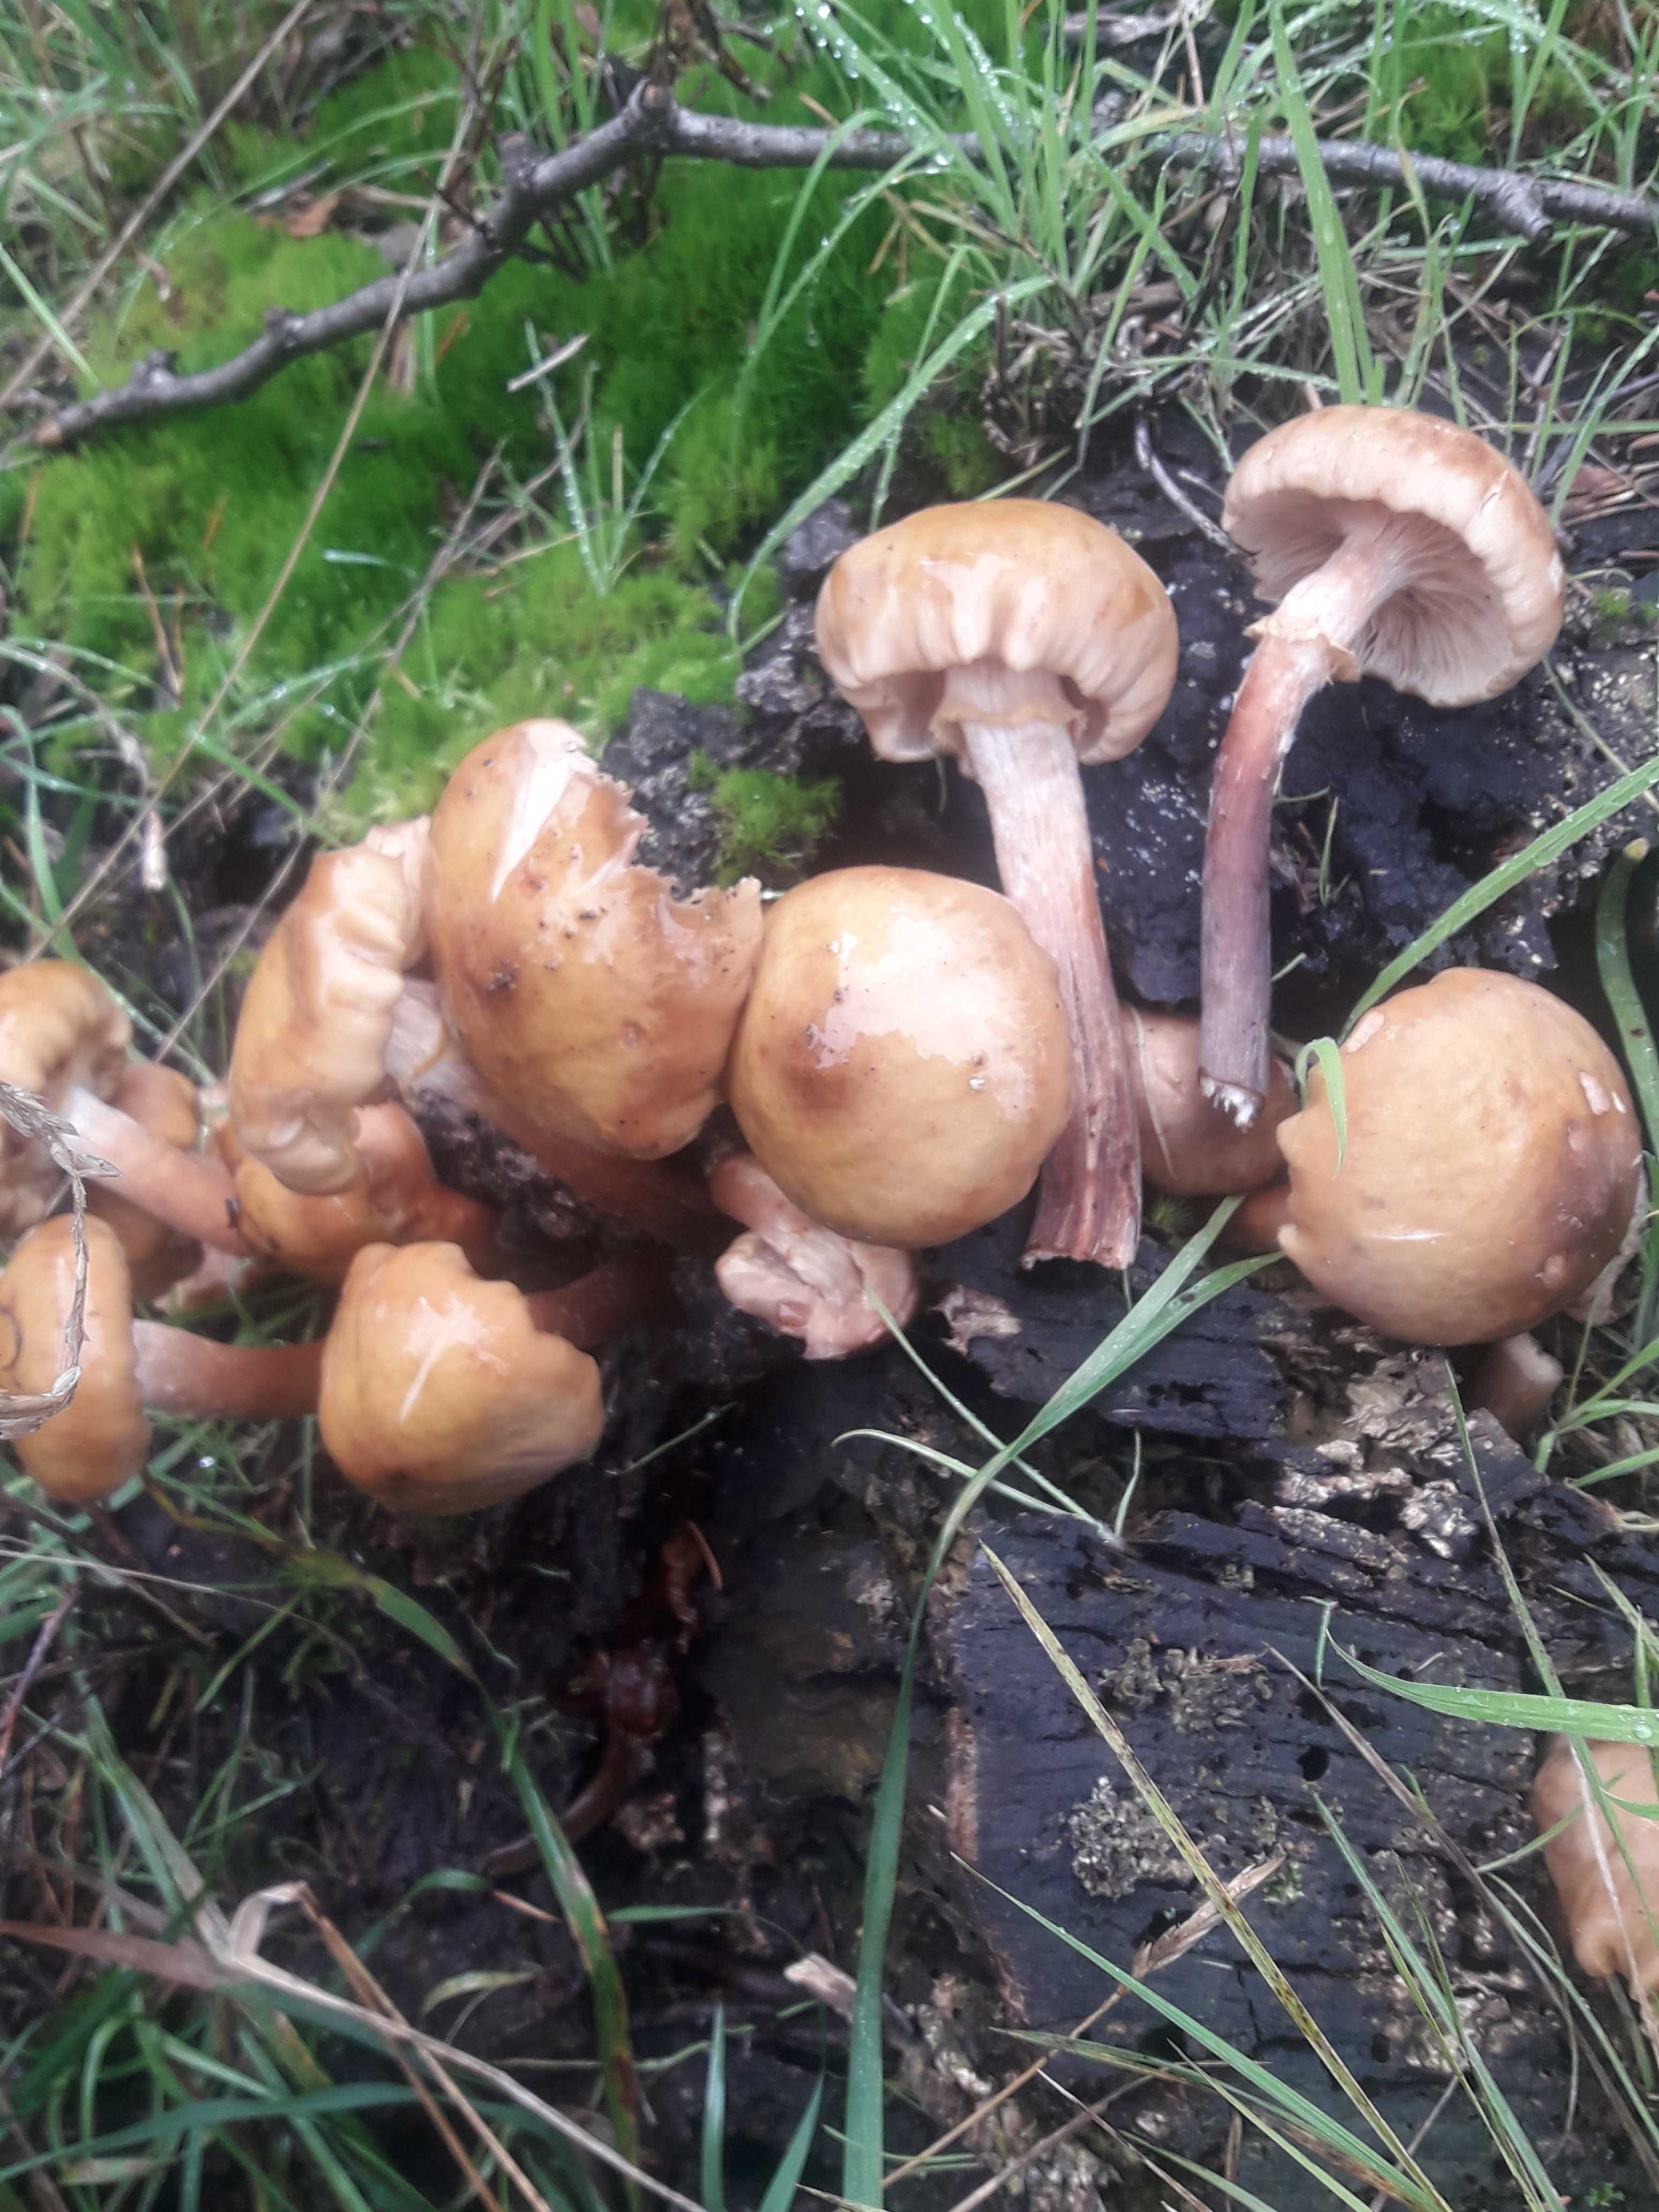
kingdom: Fungi
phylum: Basidiomycota
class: Agaricomycetes
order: Agaricales
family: Physalacriaceae
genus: Armillaria
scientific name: Armillaria mellea
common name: ægte honningsvamp
